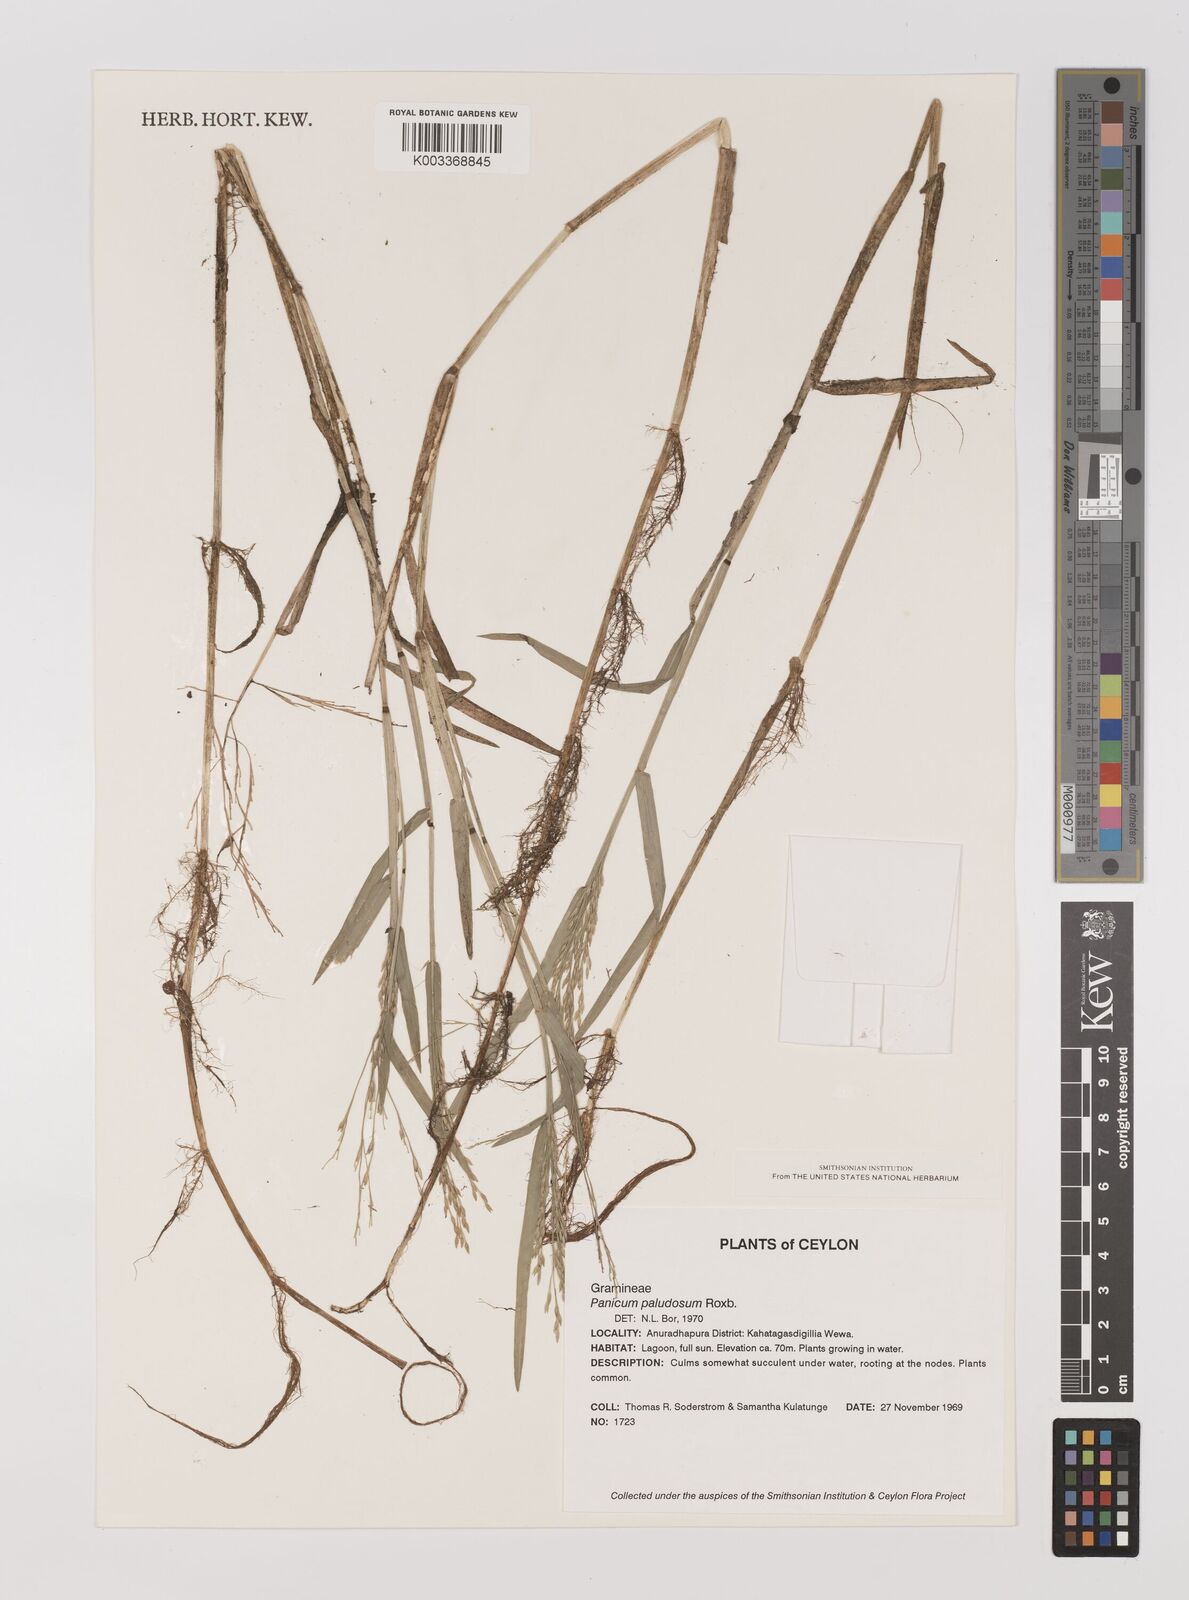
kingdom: Plantae
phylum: Tracheophyta
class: Liliopsida
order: Poales
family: Poaceae
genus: Louisiella
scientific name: Louisiella paludosa
